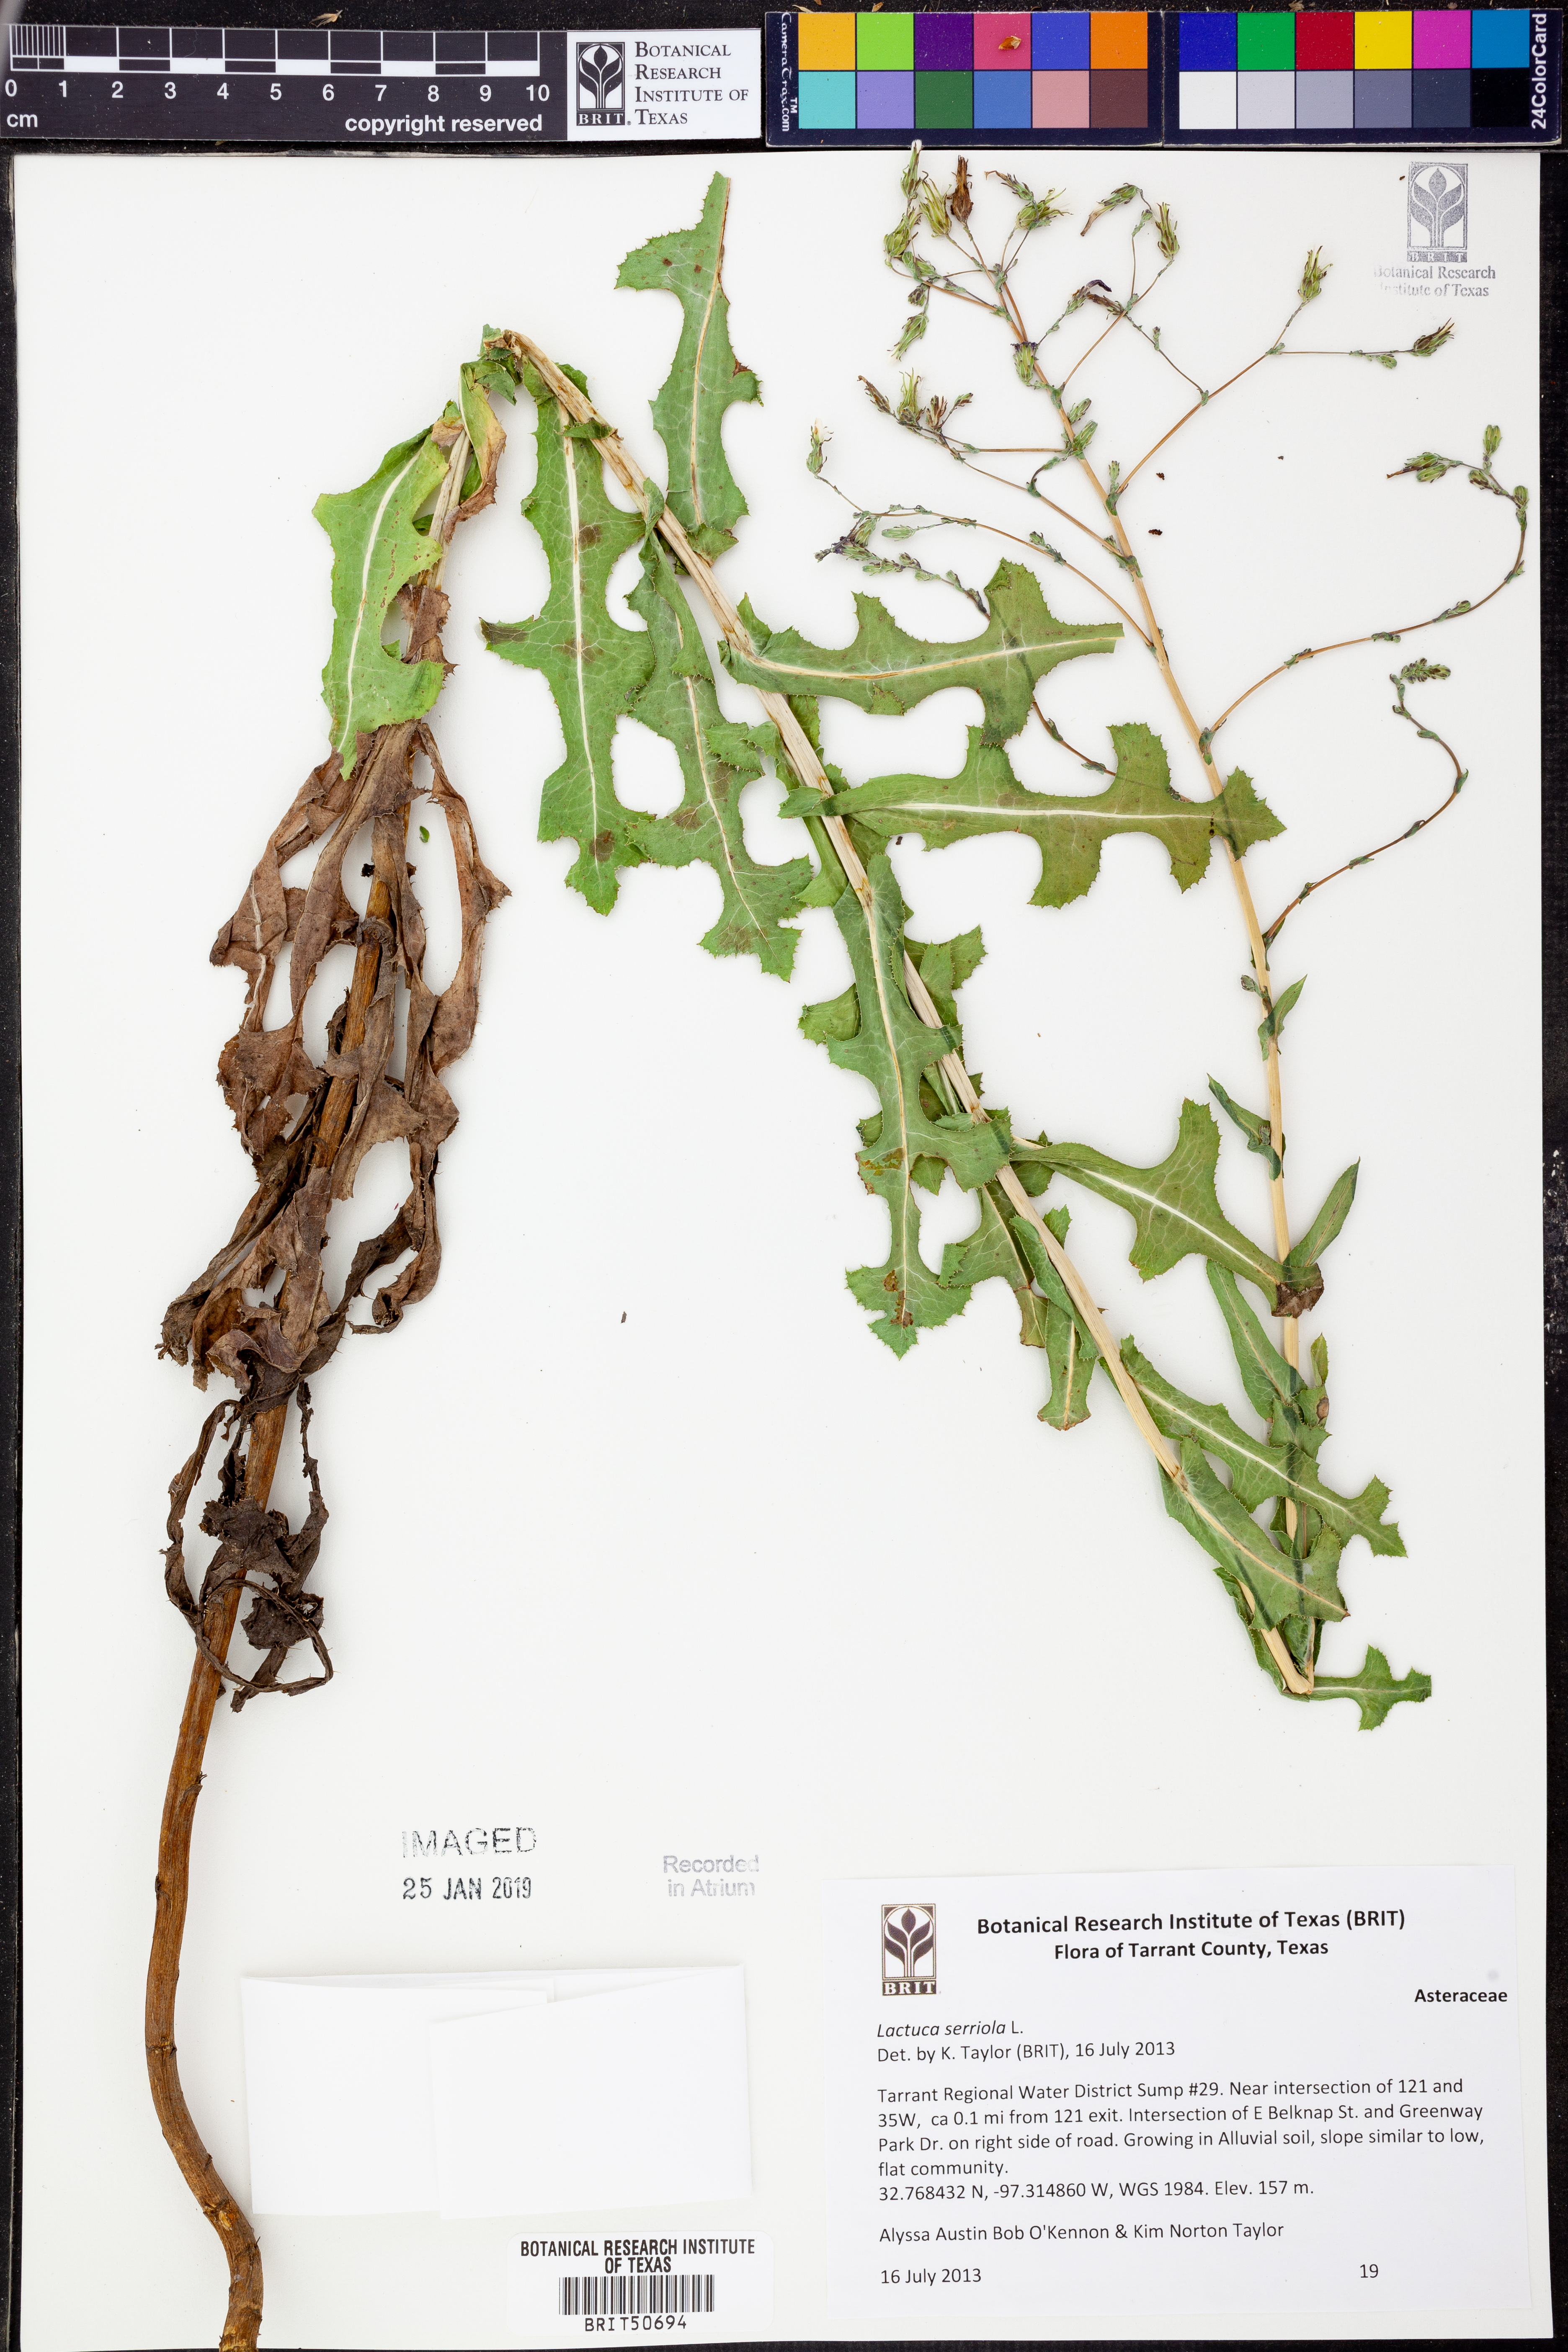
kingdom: Plantae
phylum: Tracheophyta
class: Magnoliopsida
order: Asterales
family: Asteraceae
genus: Lactuca
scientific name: Lactuca serriola
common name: Prickly lettuce
